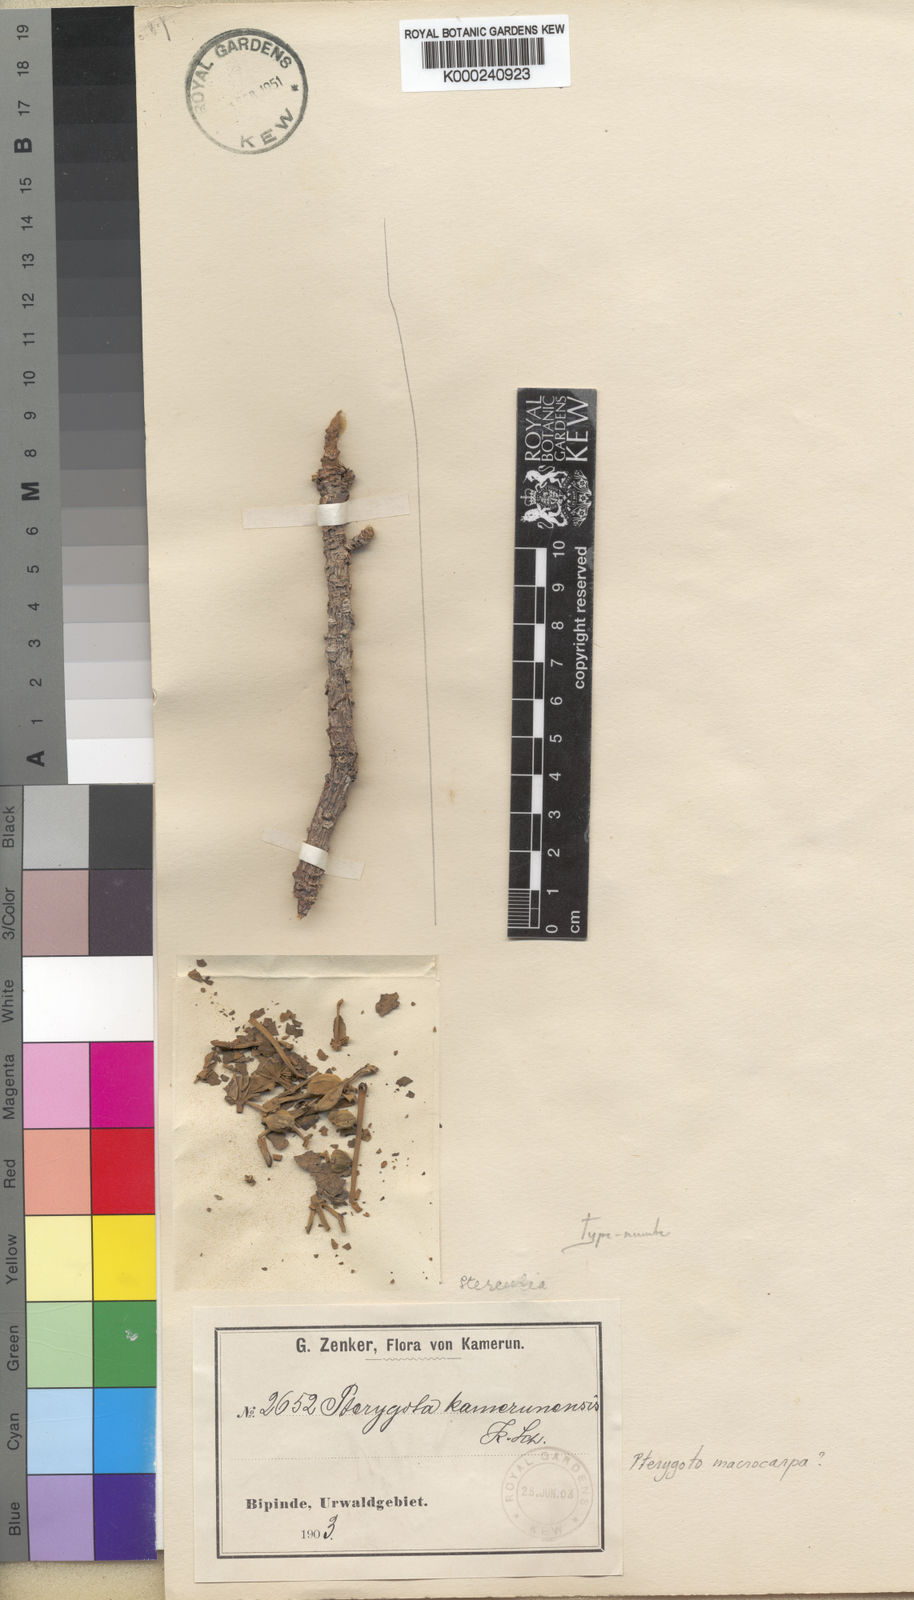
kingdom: Plantae
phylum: Tracheophyta
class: Magnoliopsida
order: Malvales
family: Malvaceae
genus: Pterygota
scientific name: Pterygota macrocarpa
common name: African pterygota
